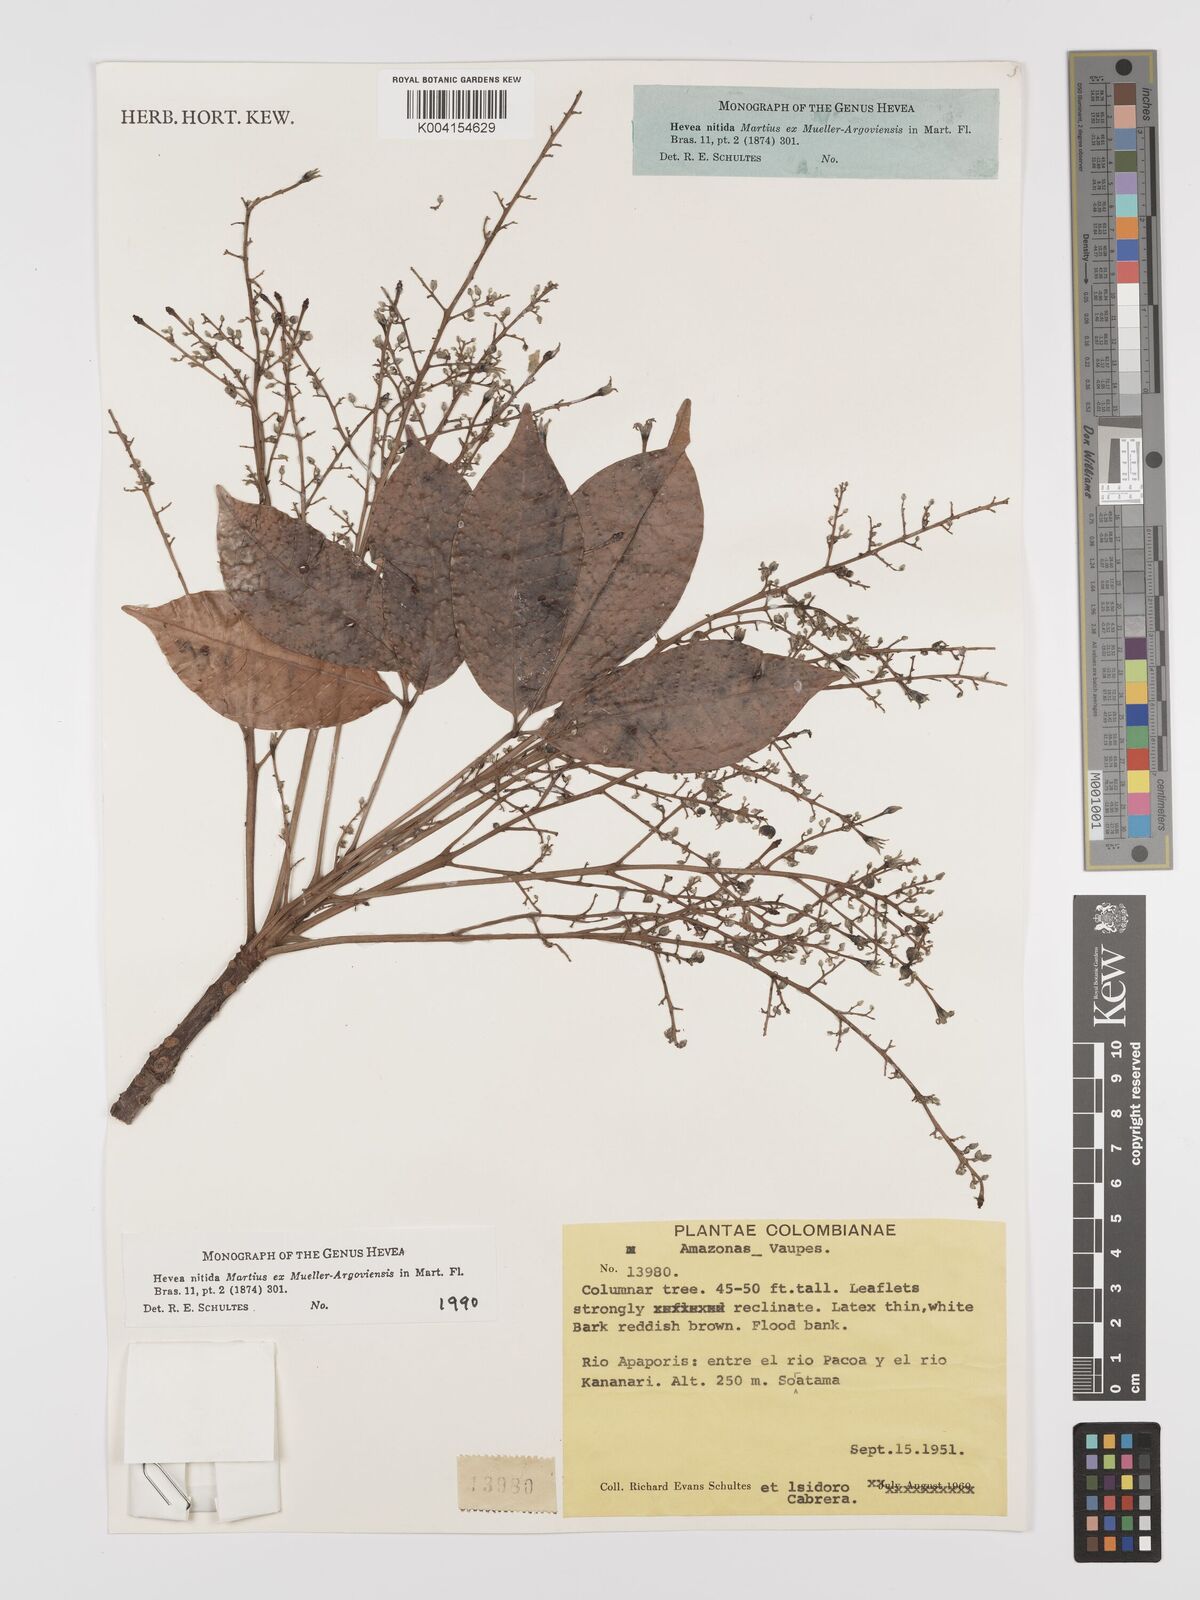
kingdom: Plantae
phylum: Tracheophyta
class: Magnoliopsida
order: Malpighiales
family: Euphorbiaceae
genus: Hevea
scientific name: Hevea nitida
